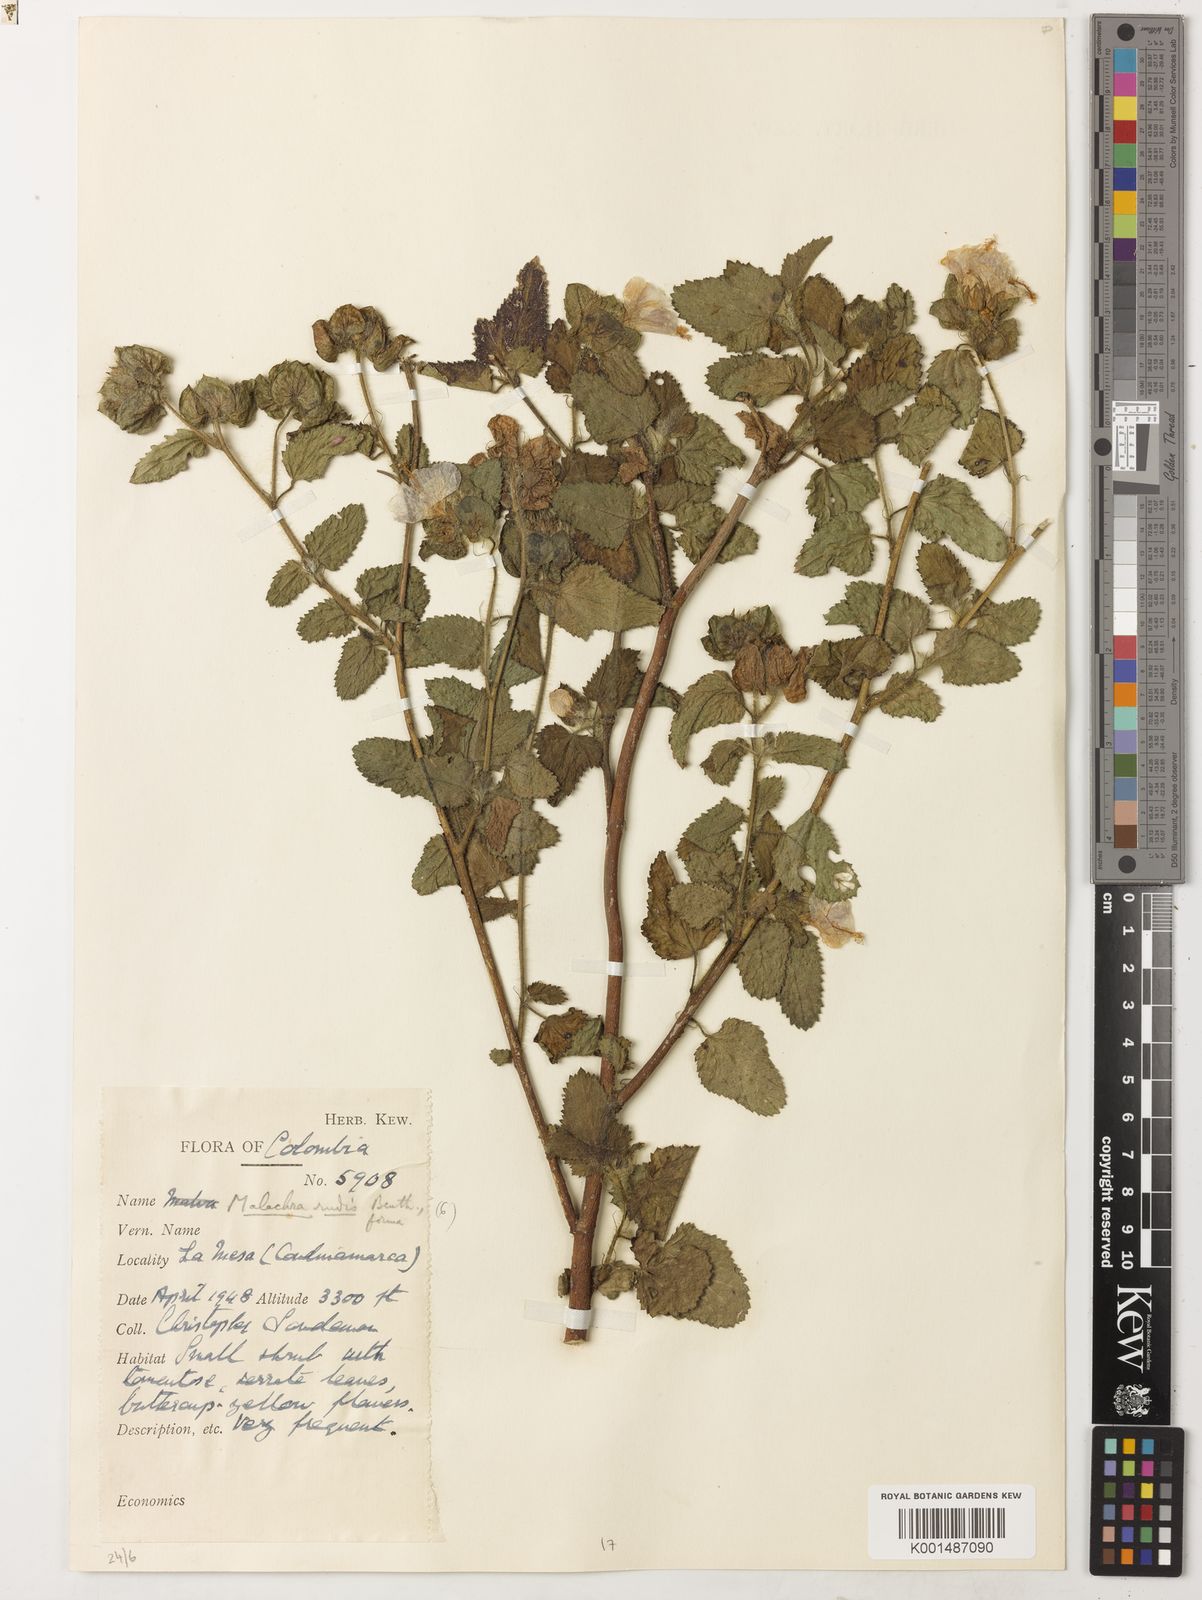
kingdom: Plantae
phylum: Tracheophyta
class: Magnoliopsida
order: Malvales
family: Malvaceae
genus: Malachra
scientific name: Malachra rudis
